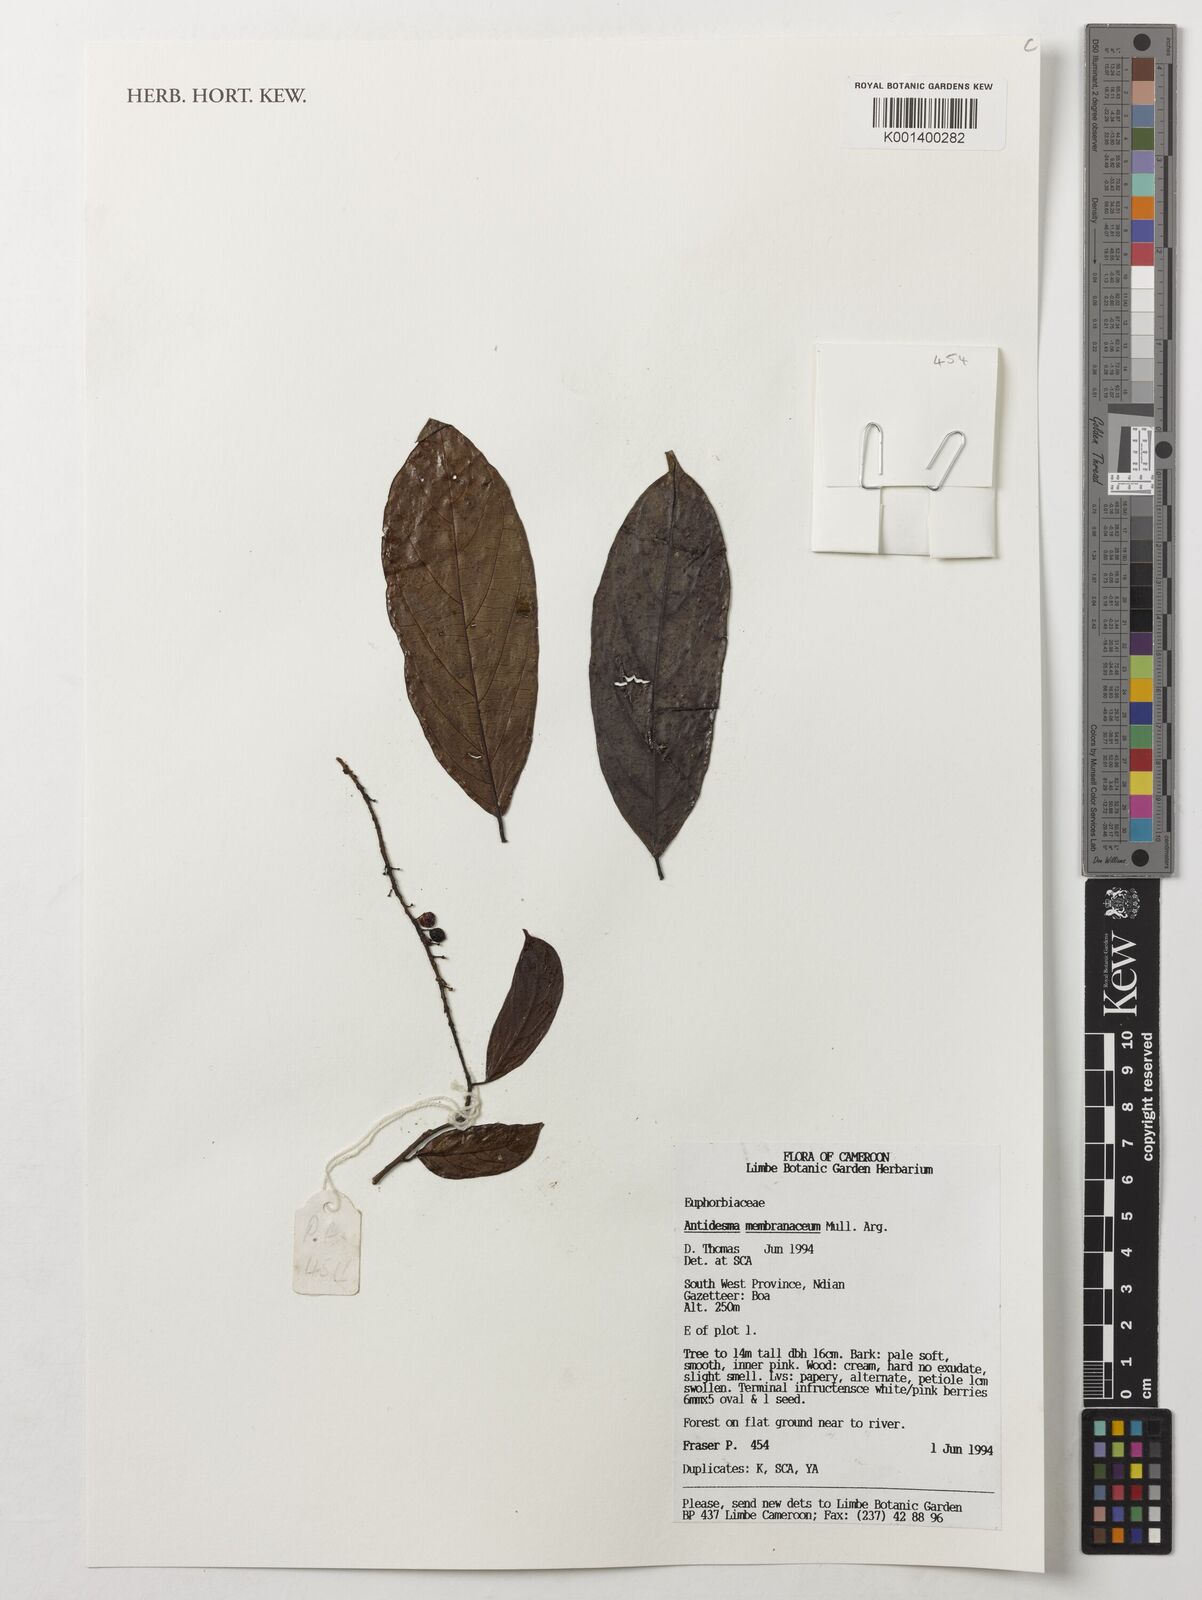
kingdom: Plantae
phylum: Tracheophyta
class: Magnoliopsida
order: Malpighiales
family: Phyllanthaceae
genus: Antidesma
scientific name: Antidesma membranaceum
